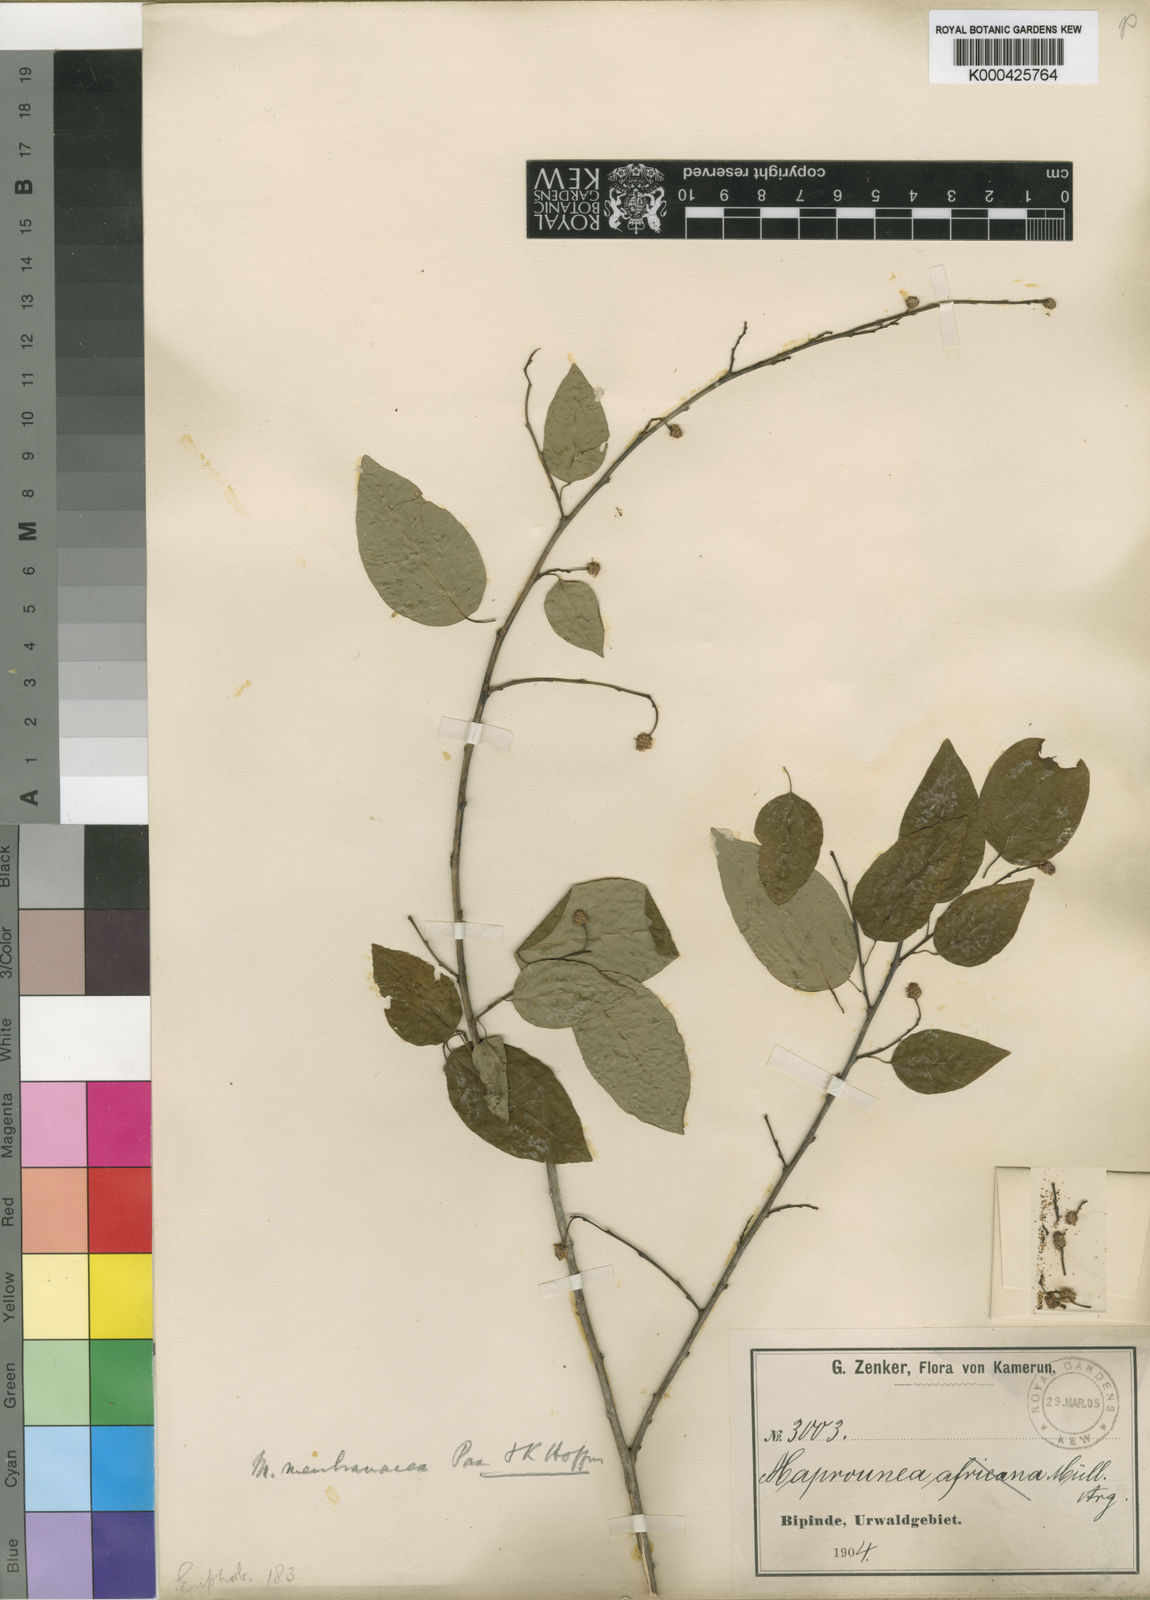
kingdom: Plantae
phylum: Tracheophyta
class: Magnoliopsida
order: Malpighiales
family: Euphorbiaceae
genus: Maprounea
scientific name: Maprounea membranacea
